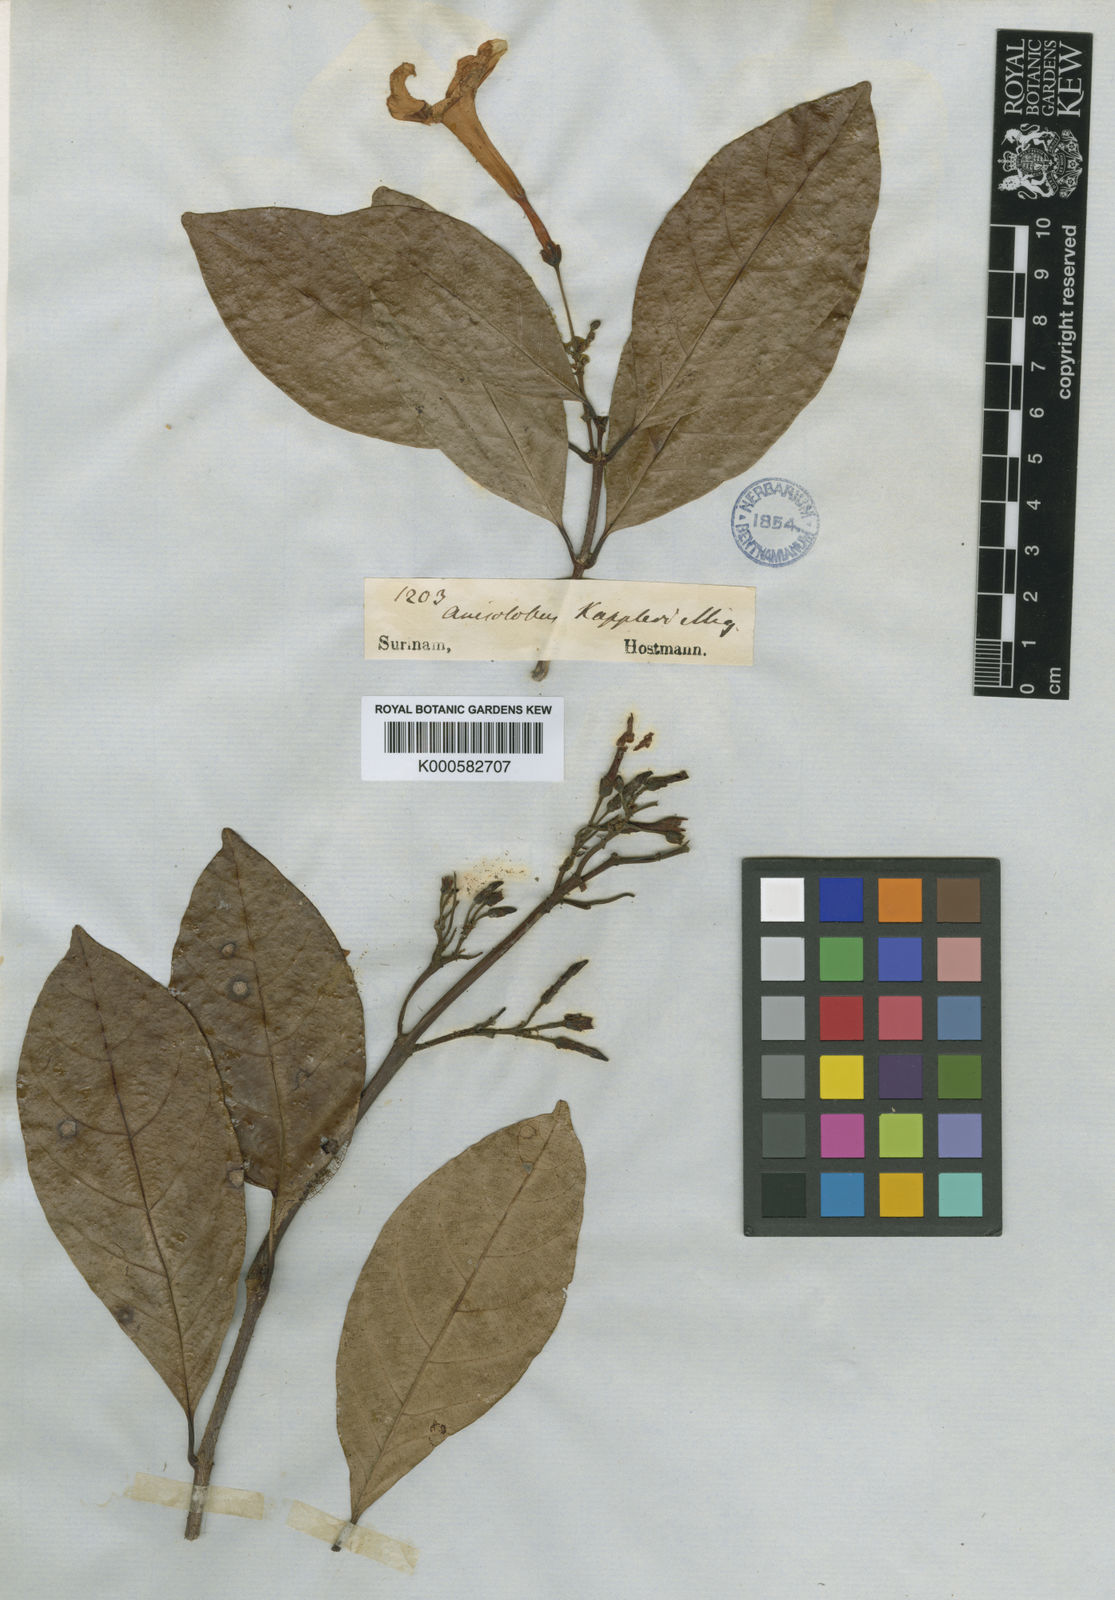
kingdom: Plantae
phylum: Tracheophyta
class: Magnoliopsida
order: Gentianales
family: Apocynaceae
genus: Odontadenia
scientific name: Odontadenia puncticulosa
